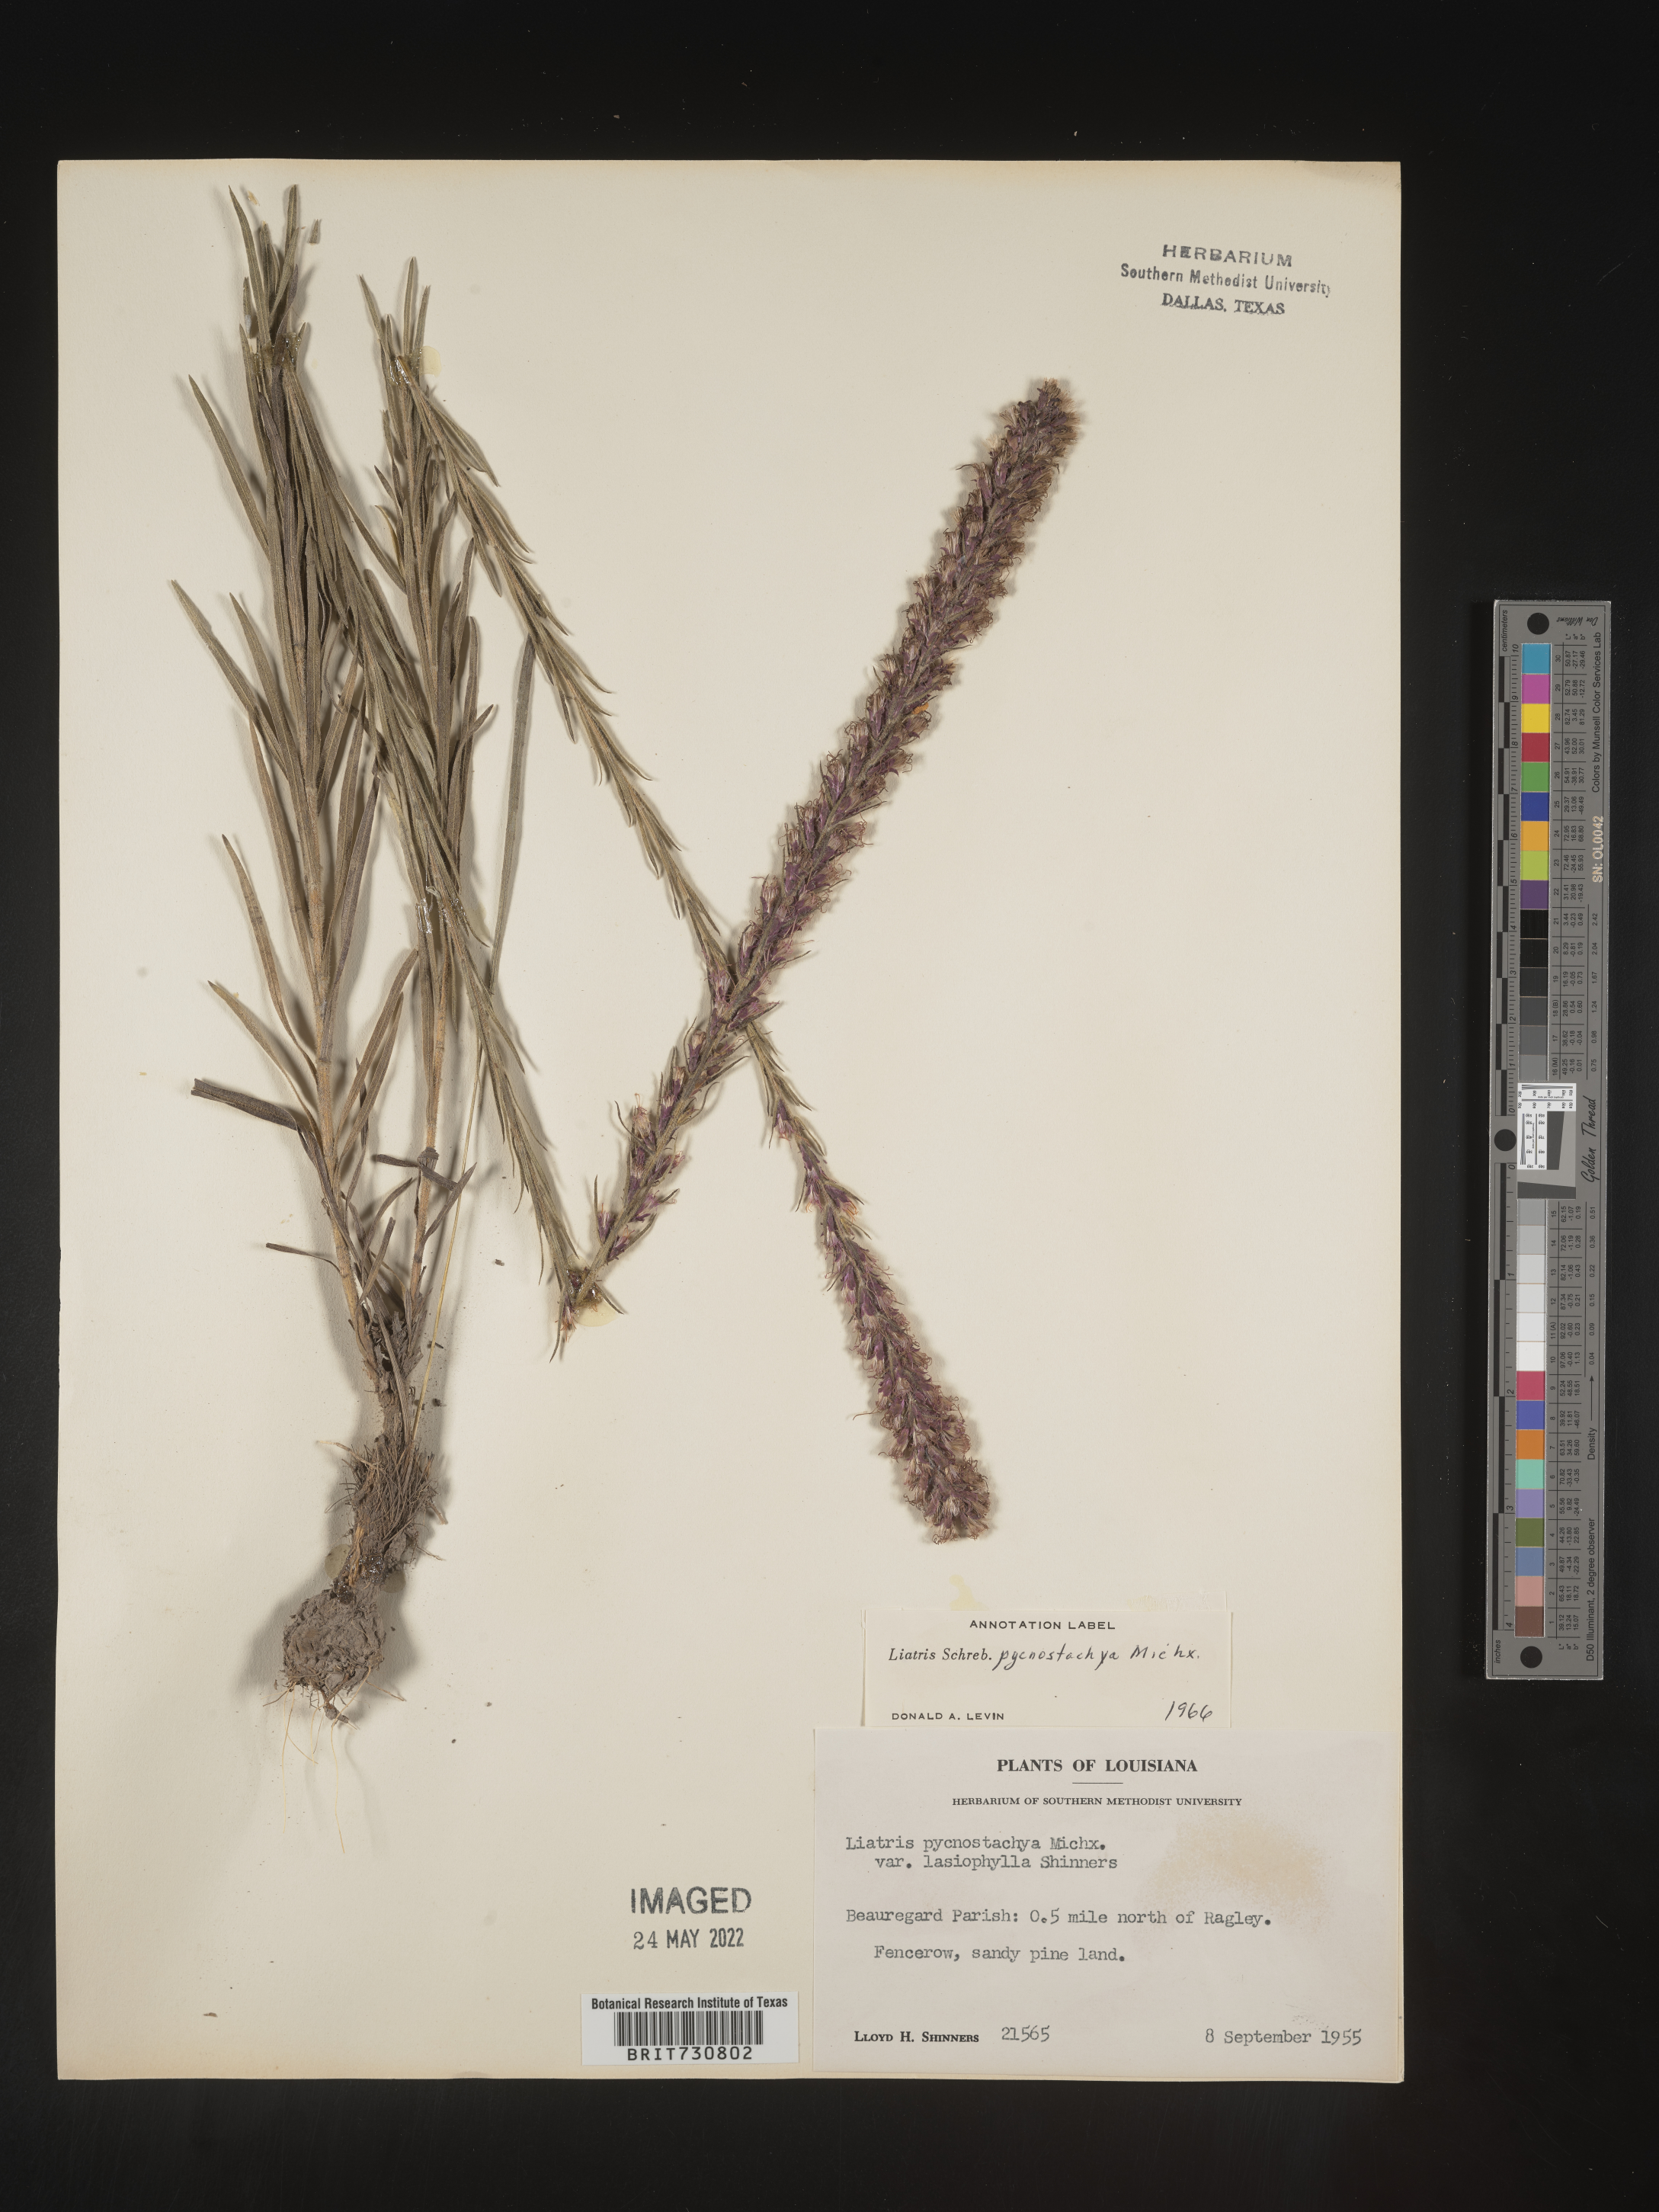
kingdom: Plantae
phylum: Tracheophyta
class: Magnoliopsida
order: Asterales
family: Asteraceae
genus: Liatris
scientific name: Liatris pycnostachya
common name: Cattail gayfeather
